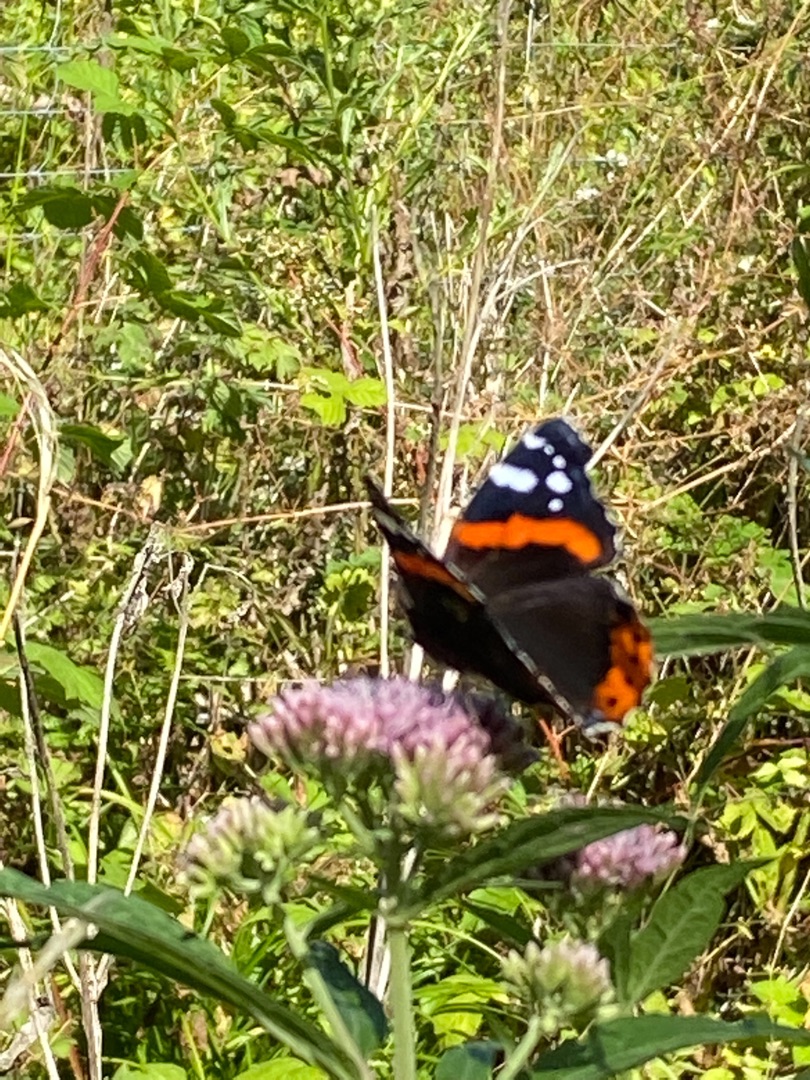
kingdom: Animalia
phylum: Arthropoda
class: Insecta
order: Lepidoptera
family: Nymphalidae
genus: Vanessa
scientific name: Vanessa atalanta
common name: Admiral
